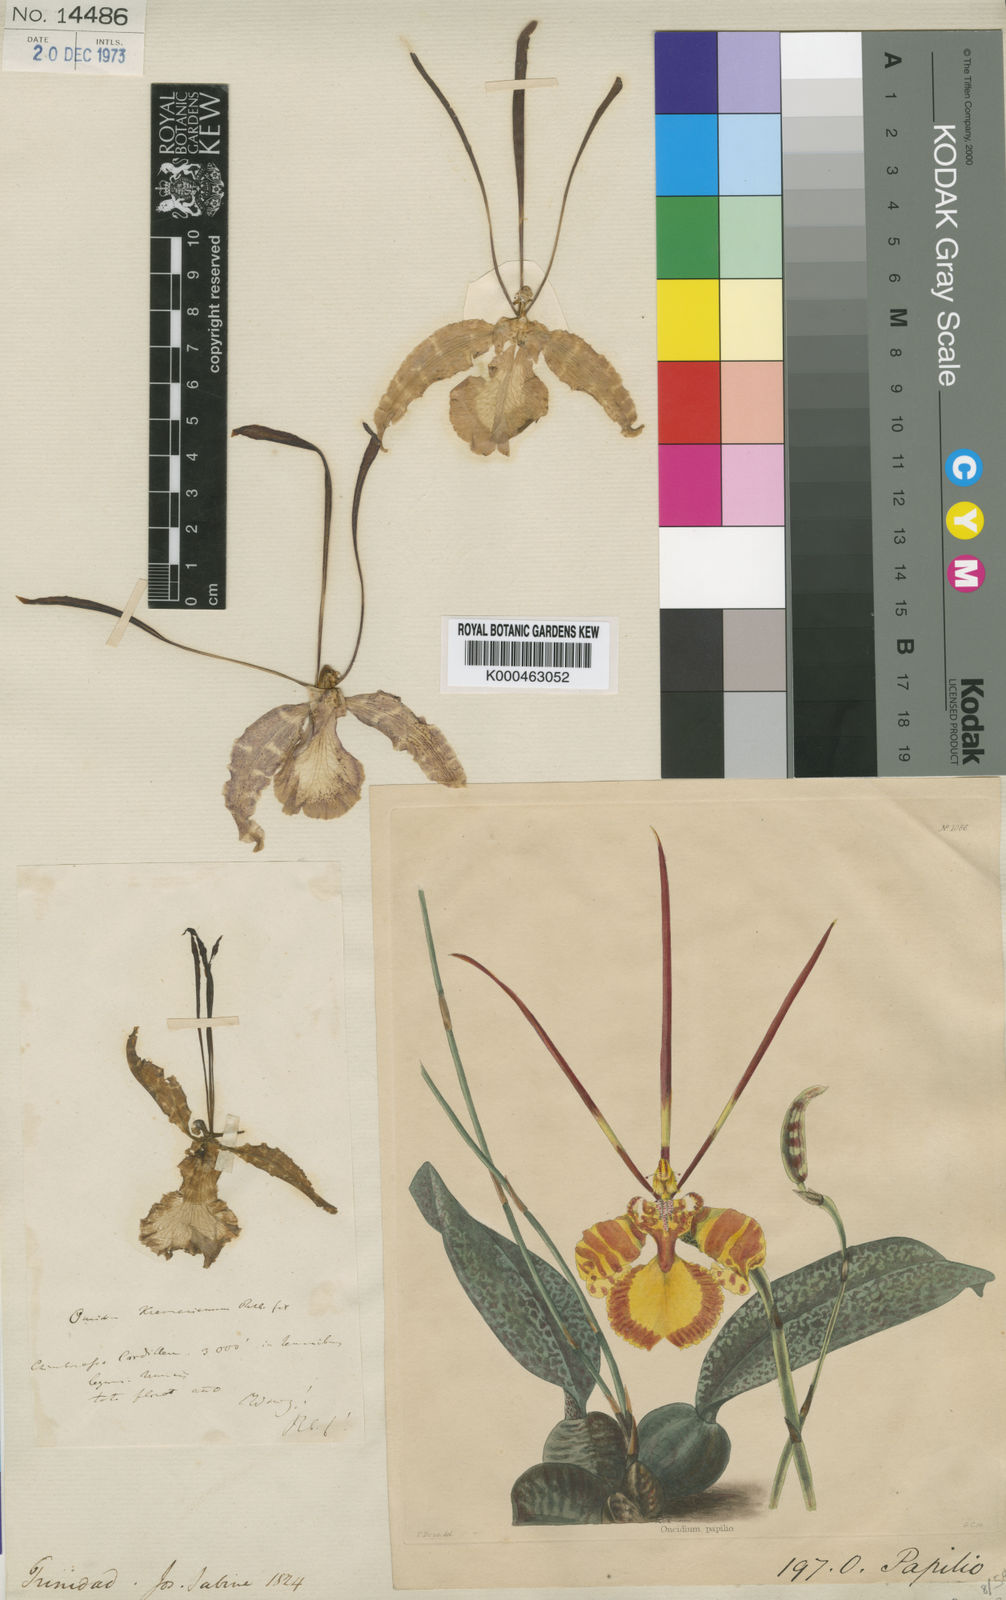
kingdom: Plantae
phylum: Tracheophyta
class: Liliopsida
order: Asparagales
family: Orchidaceae
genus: Psychopsis
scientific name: Psychopsis papilio
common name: Butterfly orchid
